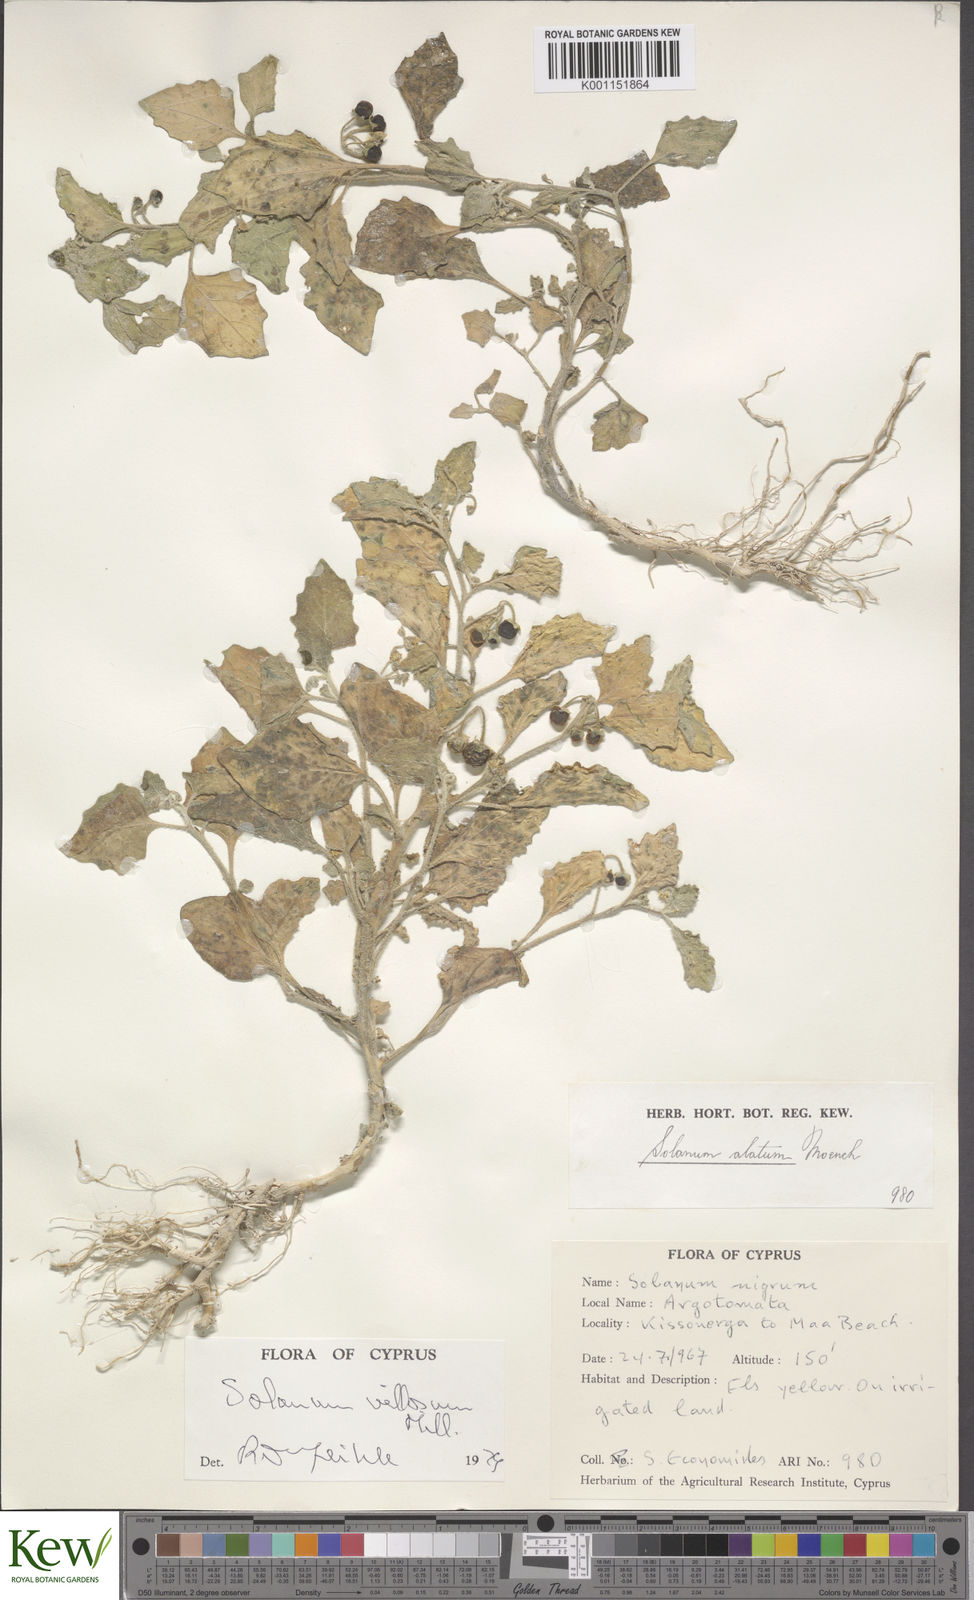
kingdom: Plantae
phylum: Tracheophyta
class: Magnoliopsida
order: Solanales
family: Solanaceae
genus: Solanum
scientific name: Solanum villosum
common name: Red nightshade
